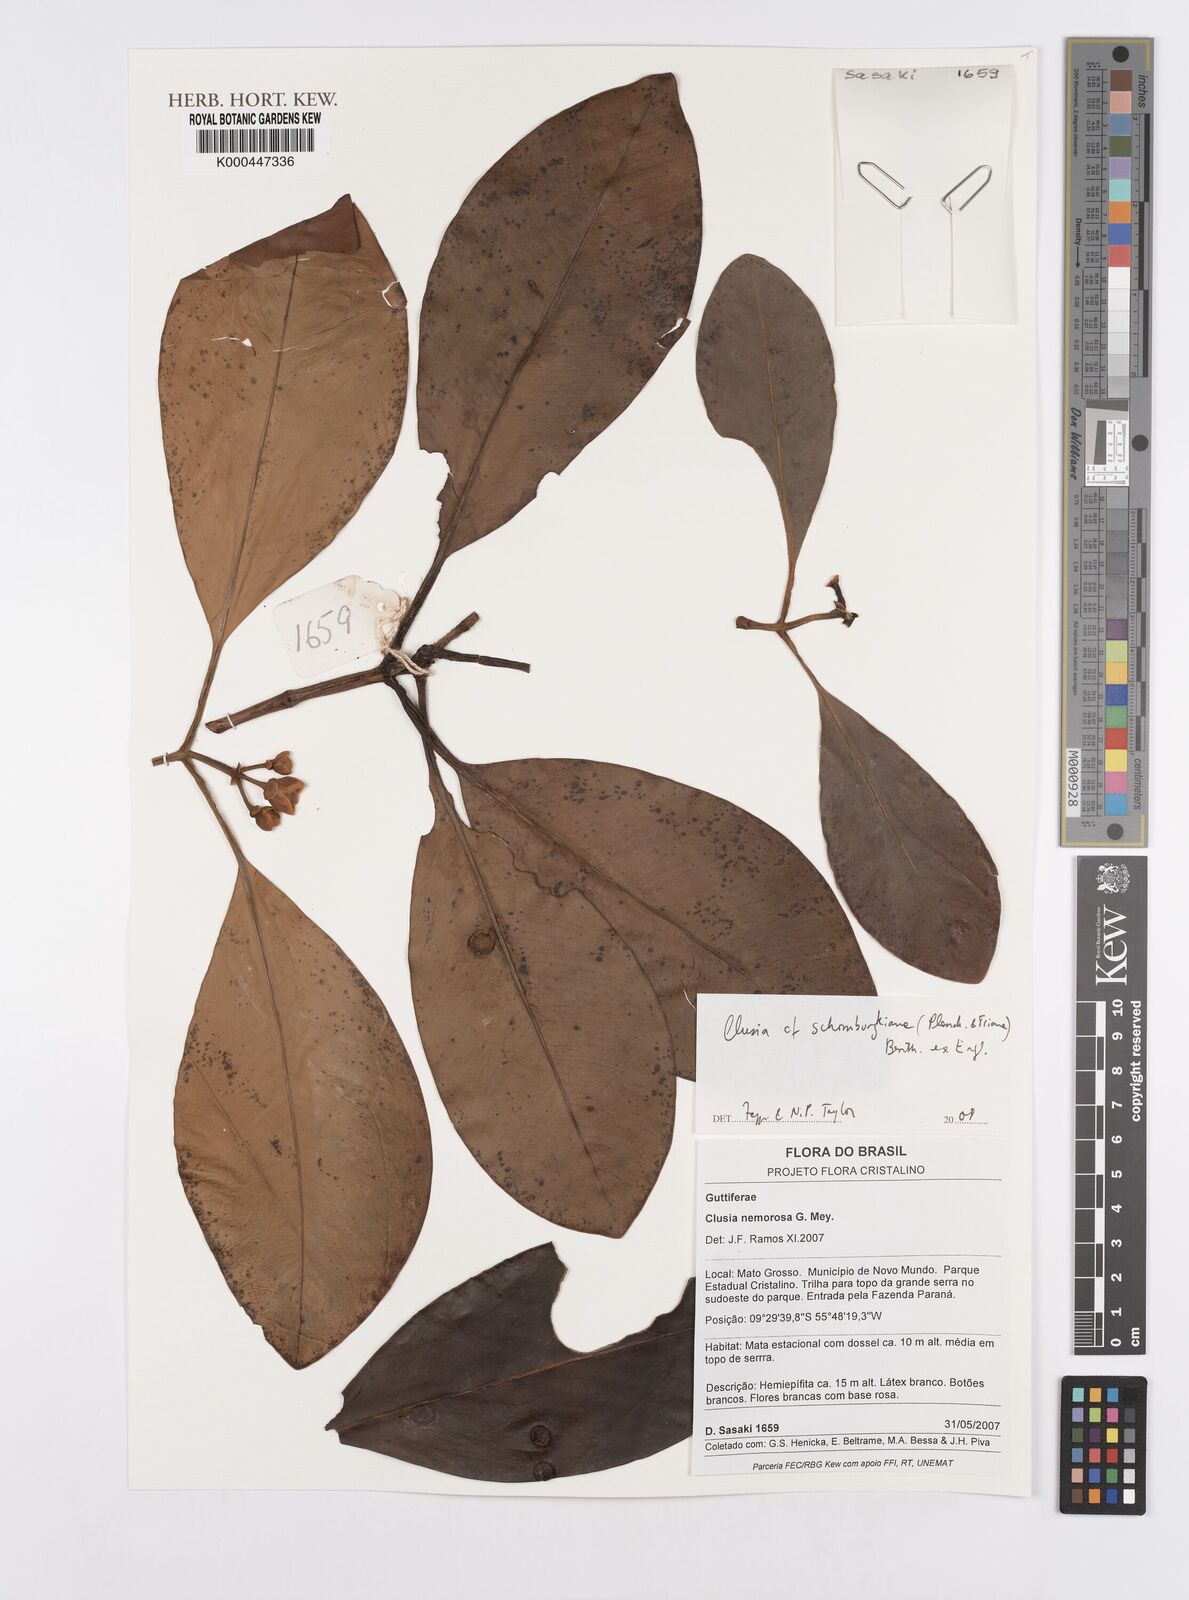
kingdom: Plantae
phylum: Tracheophyta
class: Magnoliopsida
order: Malpighiales
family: Clusiaceae
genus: Clusia
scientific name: Clusia schomburgkiana
